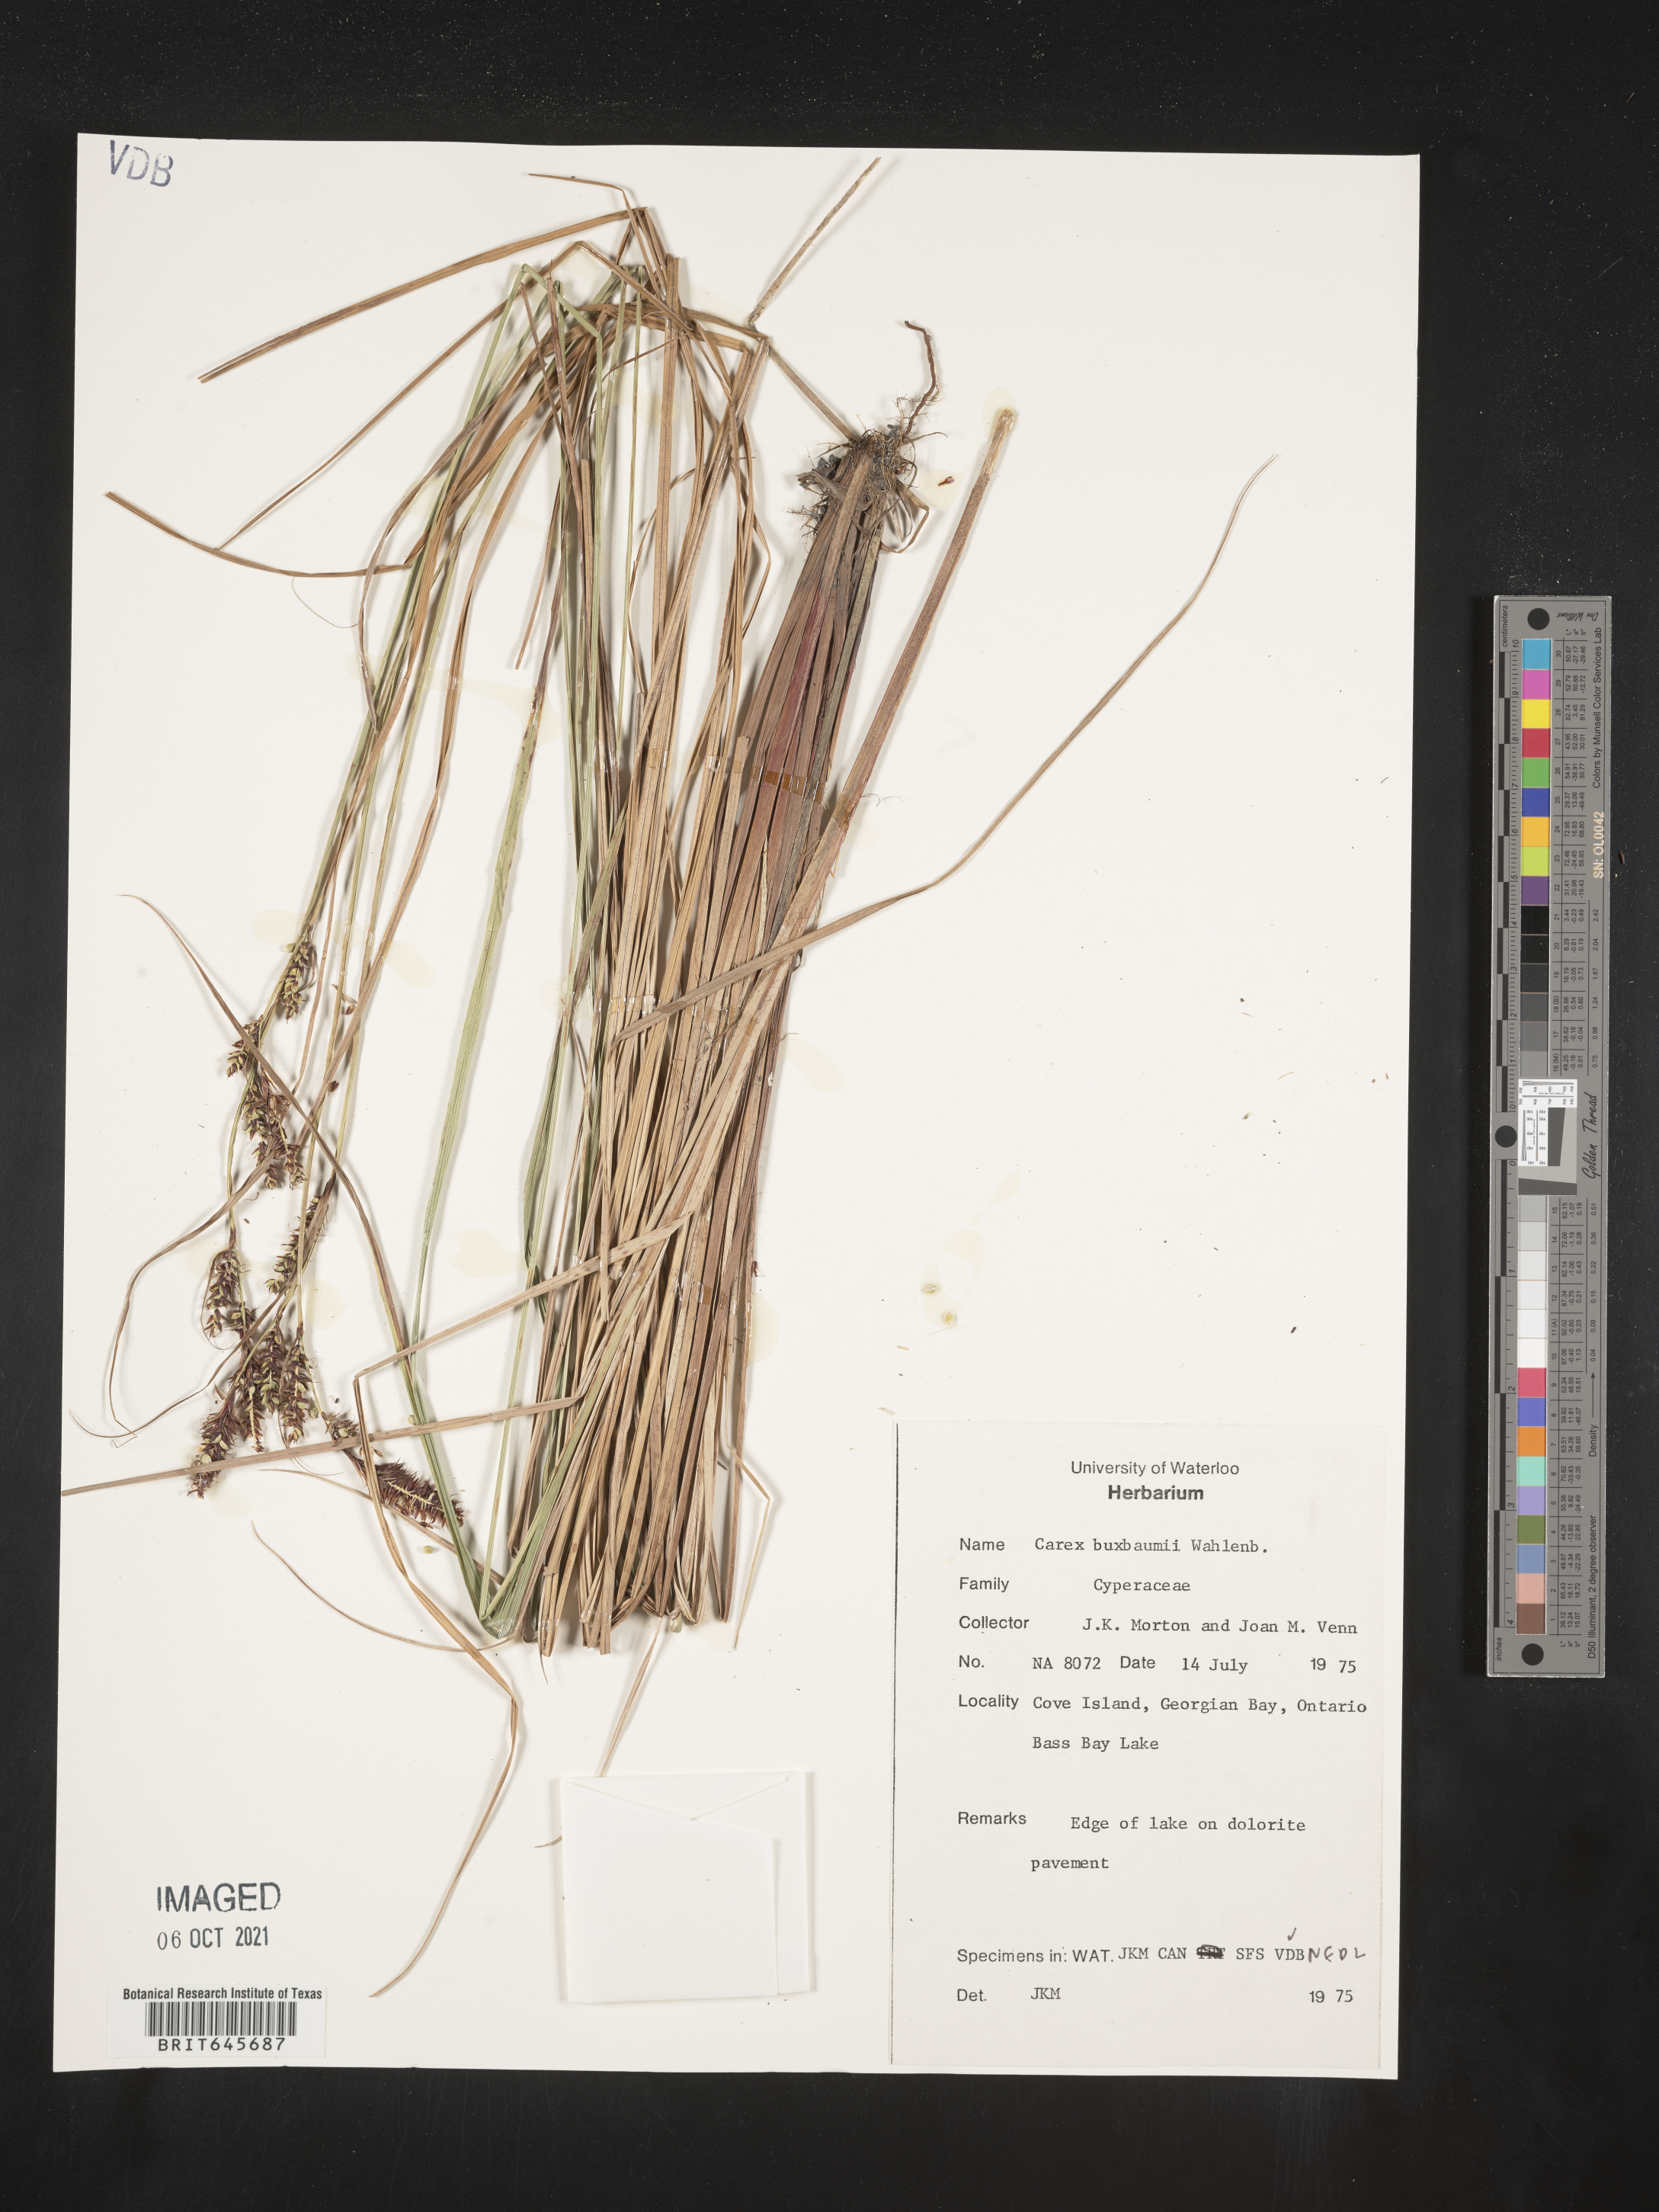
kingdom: Plantae
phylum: Tracheophyta
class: Liliopsida
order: Poales
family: Cyperaceae
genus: Carex
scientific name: Carex buxbaumii
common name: Club sedge
